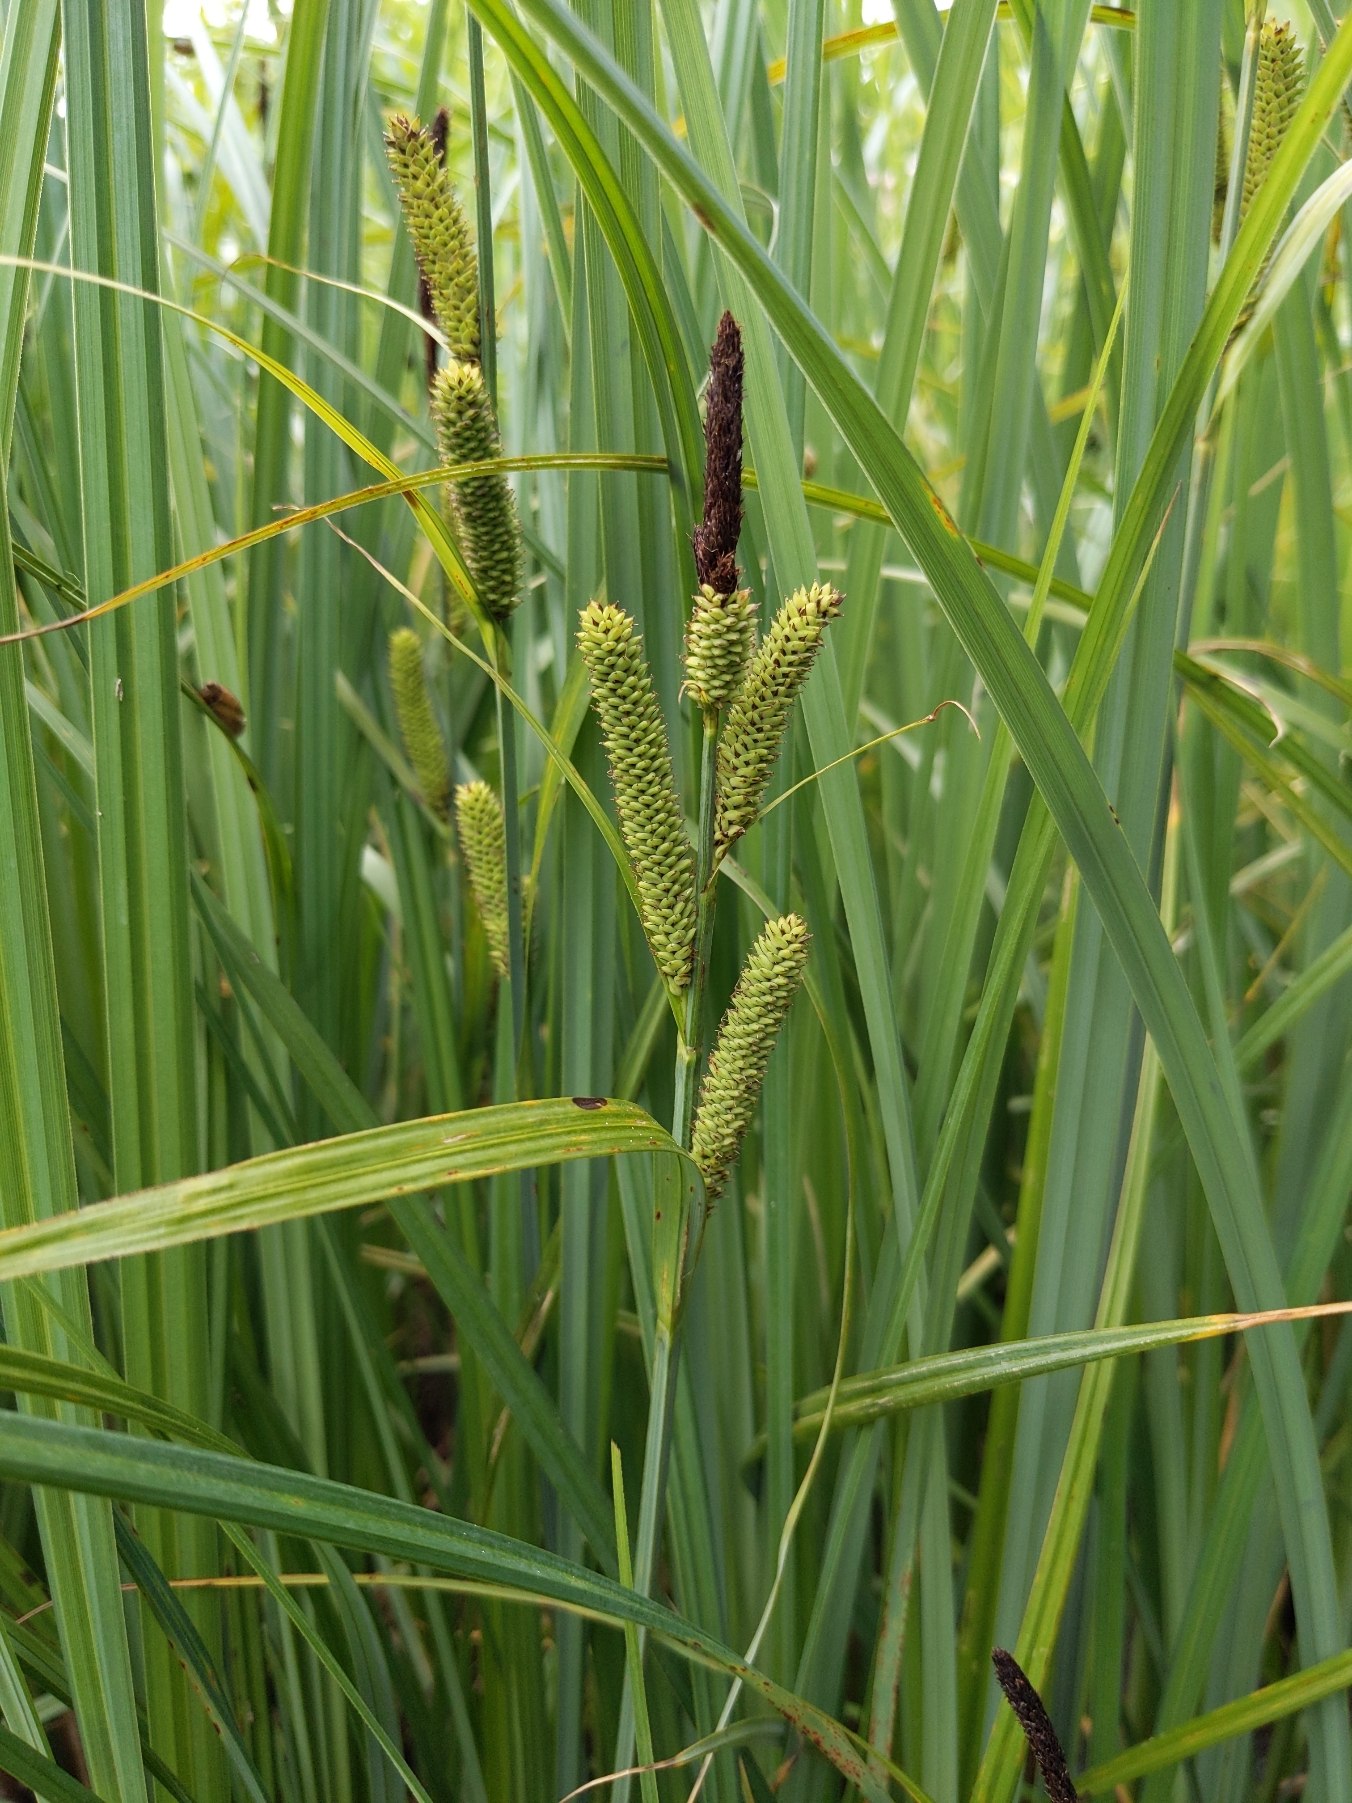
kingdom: Plantae
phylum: Tracheophyta
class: Liliopsida
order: Poales
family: Cyperaceae
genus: Carex
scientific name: Carex acutiformis
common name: Kær-star
